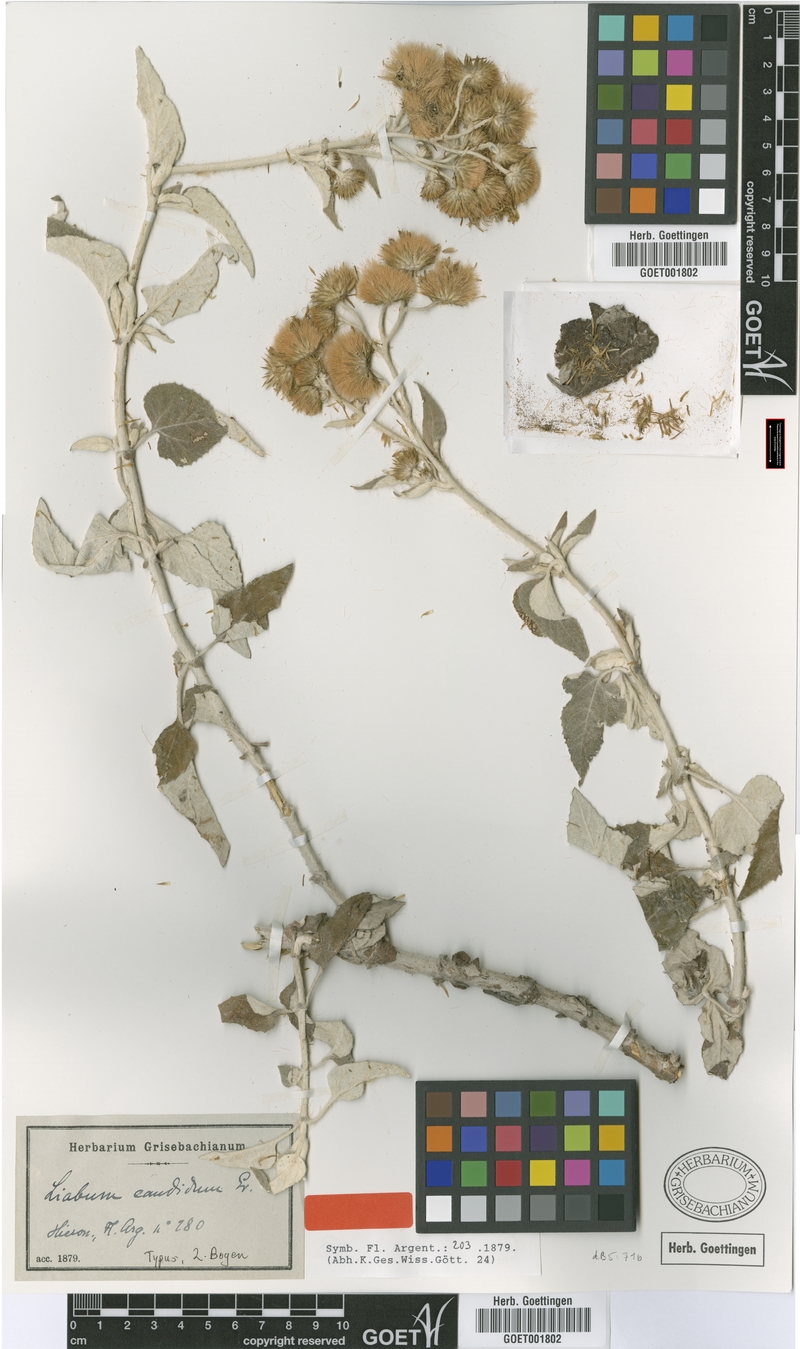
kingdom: Plantae
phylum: Tracheophyta
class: Magnoliopsida
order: Asterales
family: Asteraceae
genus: Microliabum
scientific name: Microliabum candidum
